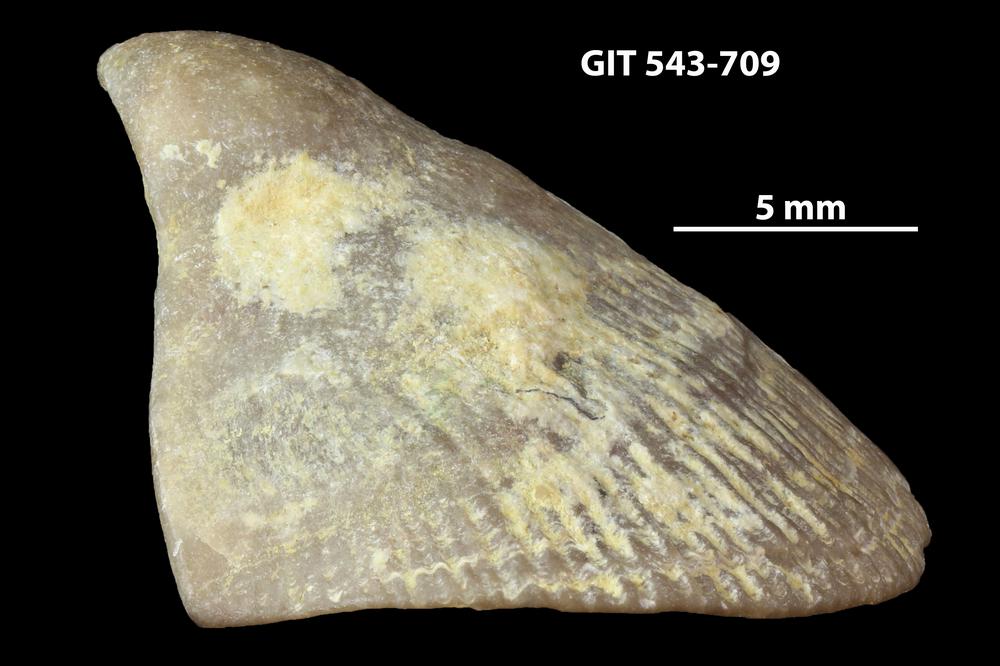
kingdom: Animalia
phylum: Brachiopoda
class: Rhynchonellata
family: Clitambonitidae
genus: Vellamo
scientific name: Vellamo oandoensis
